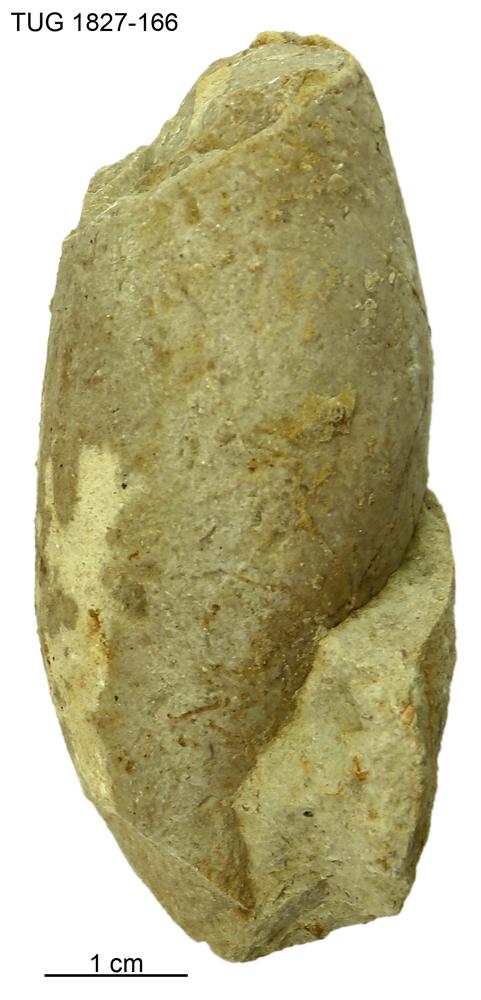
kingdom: Animalia
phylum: Mollusca
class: Gastropoda
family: Subulitidae
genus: Subulites
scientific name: Subulites
